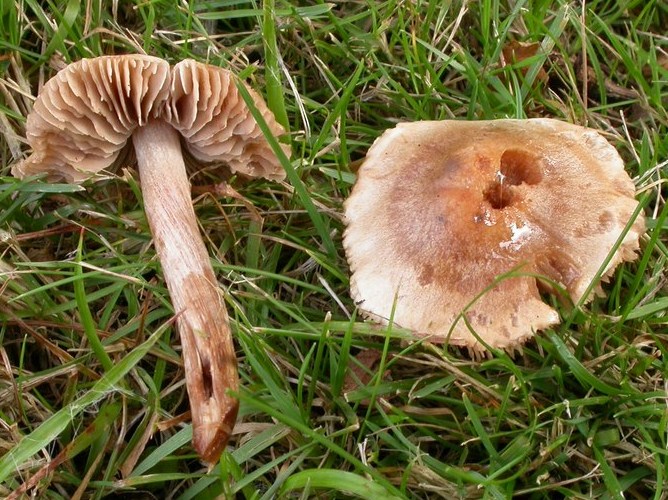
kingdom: Fungi
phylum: Basidiomycota
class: Agaricomycetes
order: Agaricales
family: Hymenogastraceae
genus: Hebeloma
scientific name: Hebeloma sacchariolens
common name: sødtduftende tåreblad
